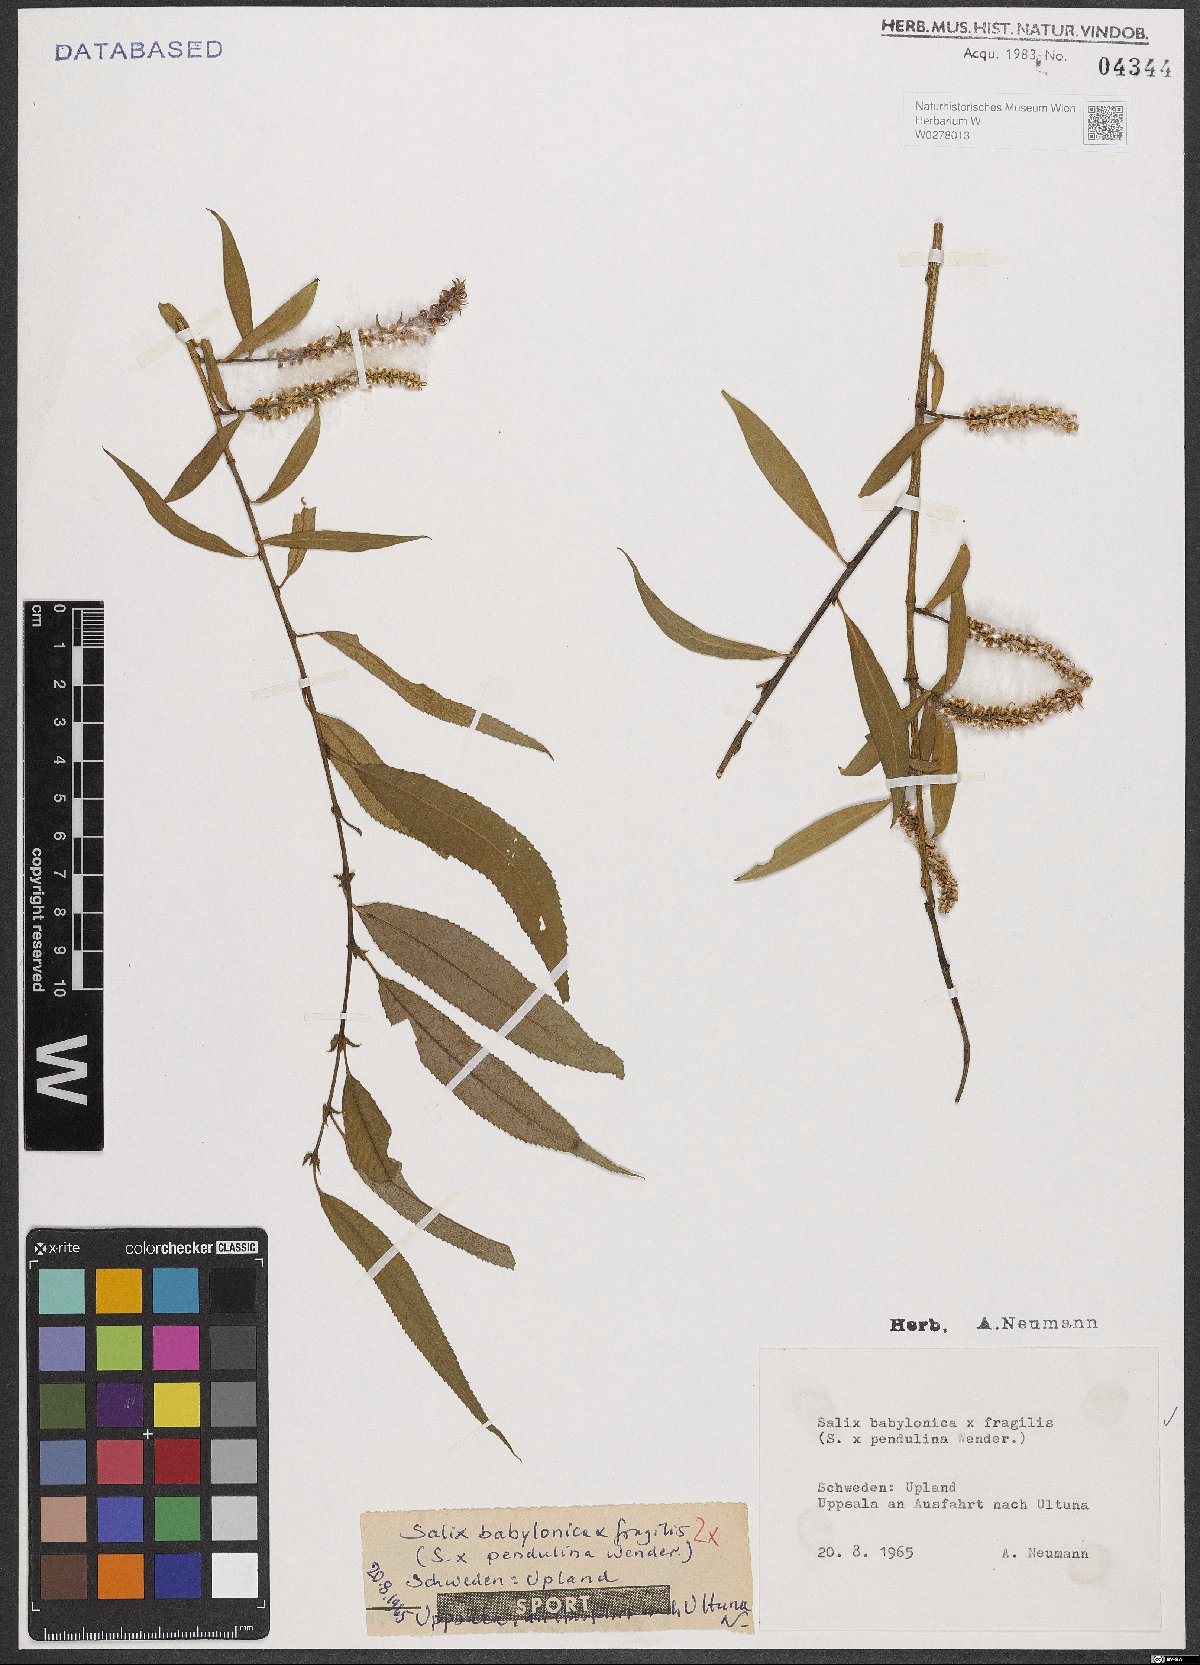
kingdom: Plantae
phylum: Tracheophyta
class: Magnoliopsida
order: Malpighiales
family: Salicaceae
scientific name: Salicaceae
